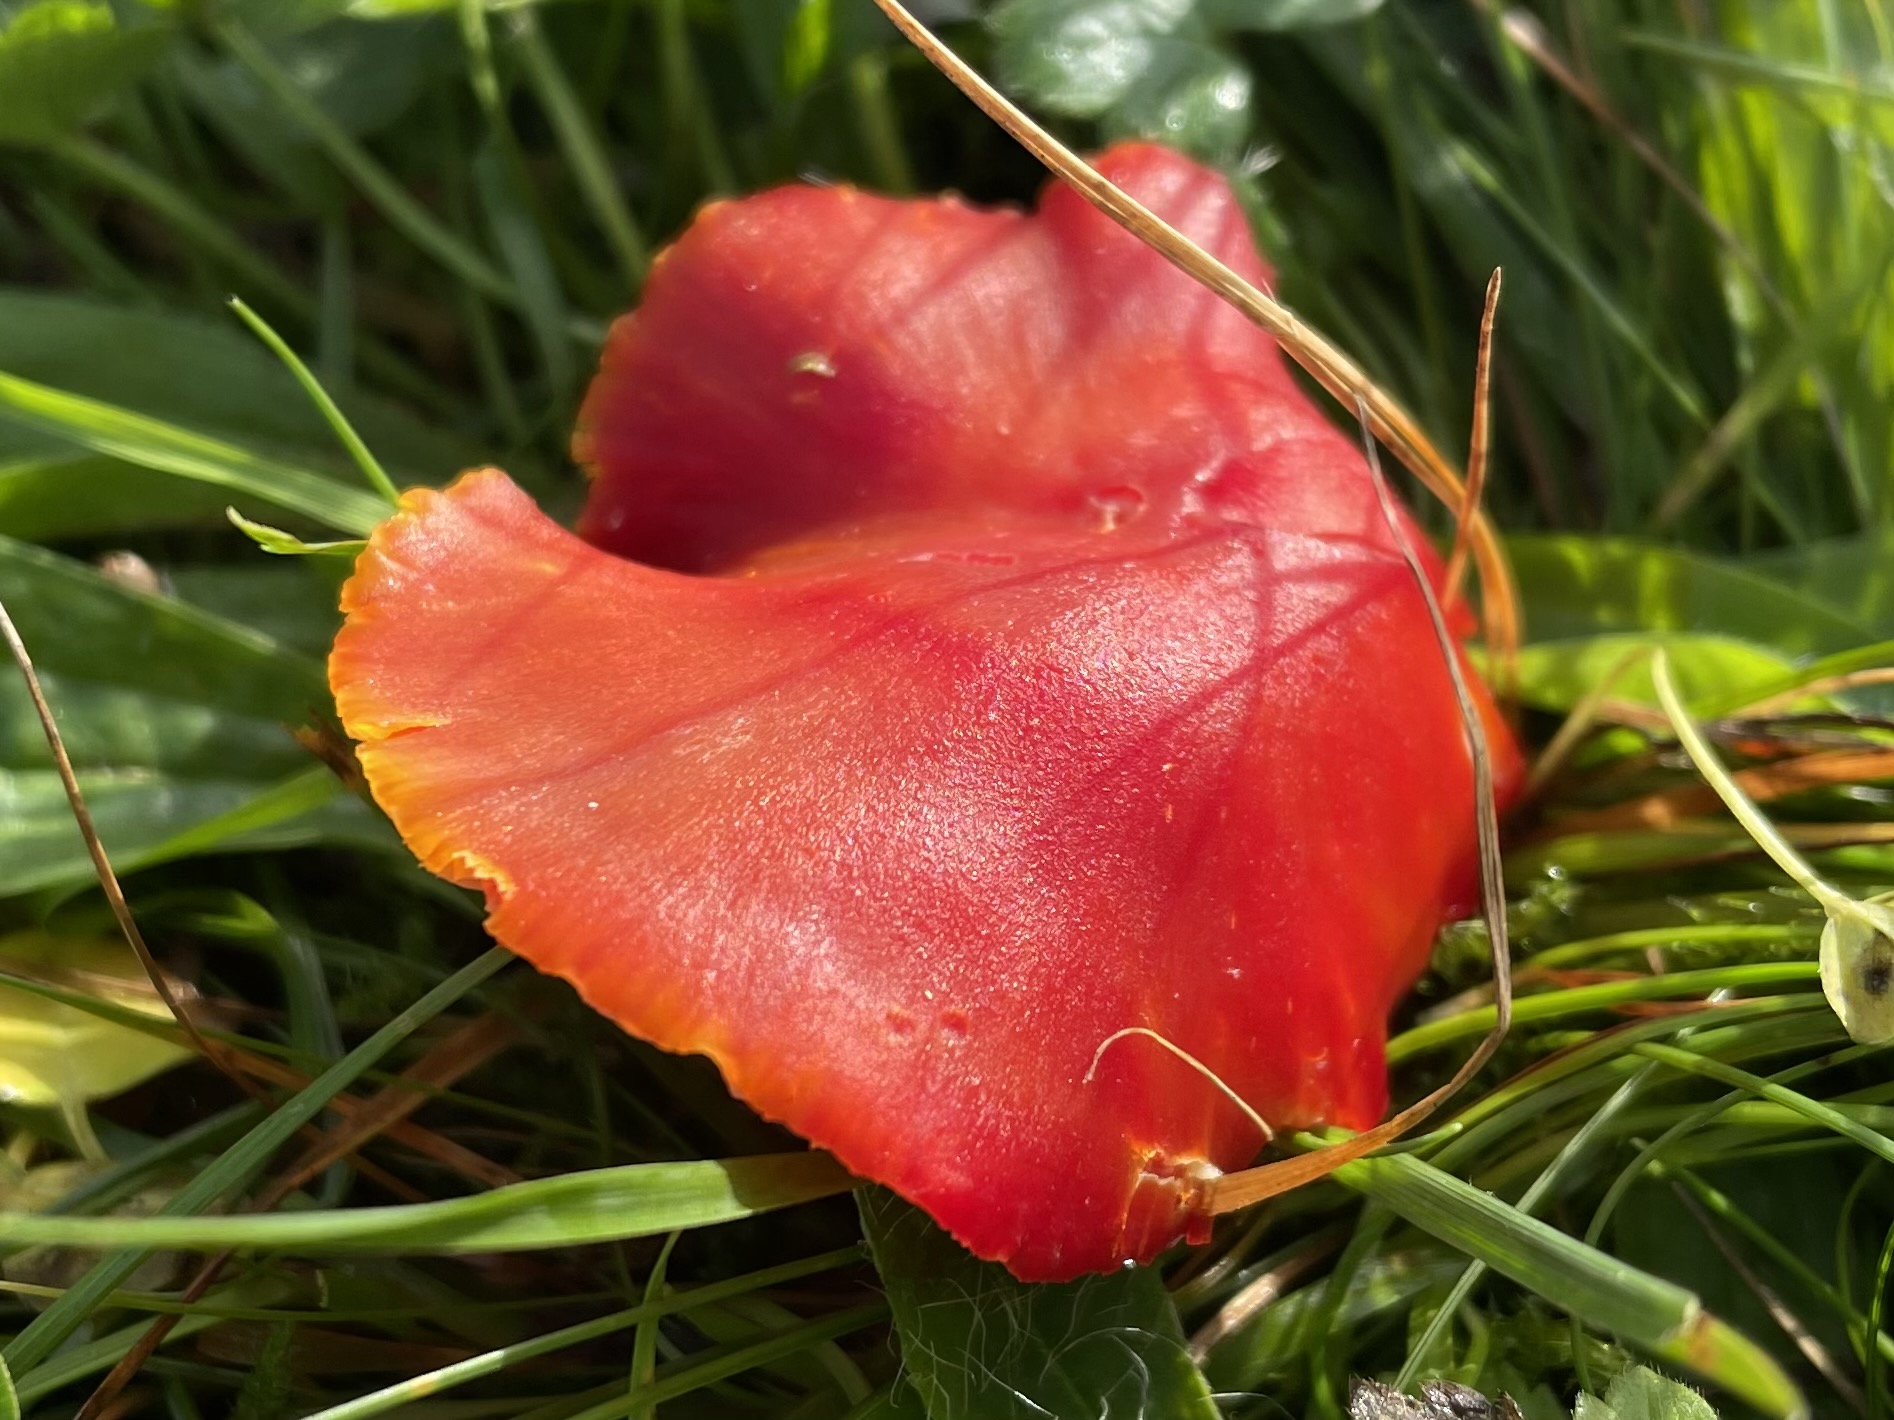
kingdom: Fungi
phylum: Basidiomycota
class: Agaricomycetes
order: Agaricales
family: Hygrophoraceae
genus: Hygrocybe
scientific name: Hygrocybe coccinea
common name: cinnober-vokshat
